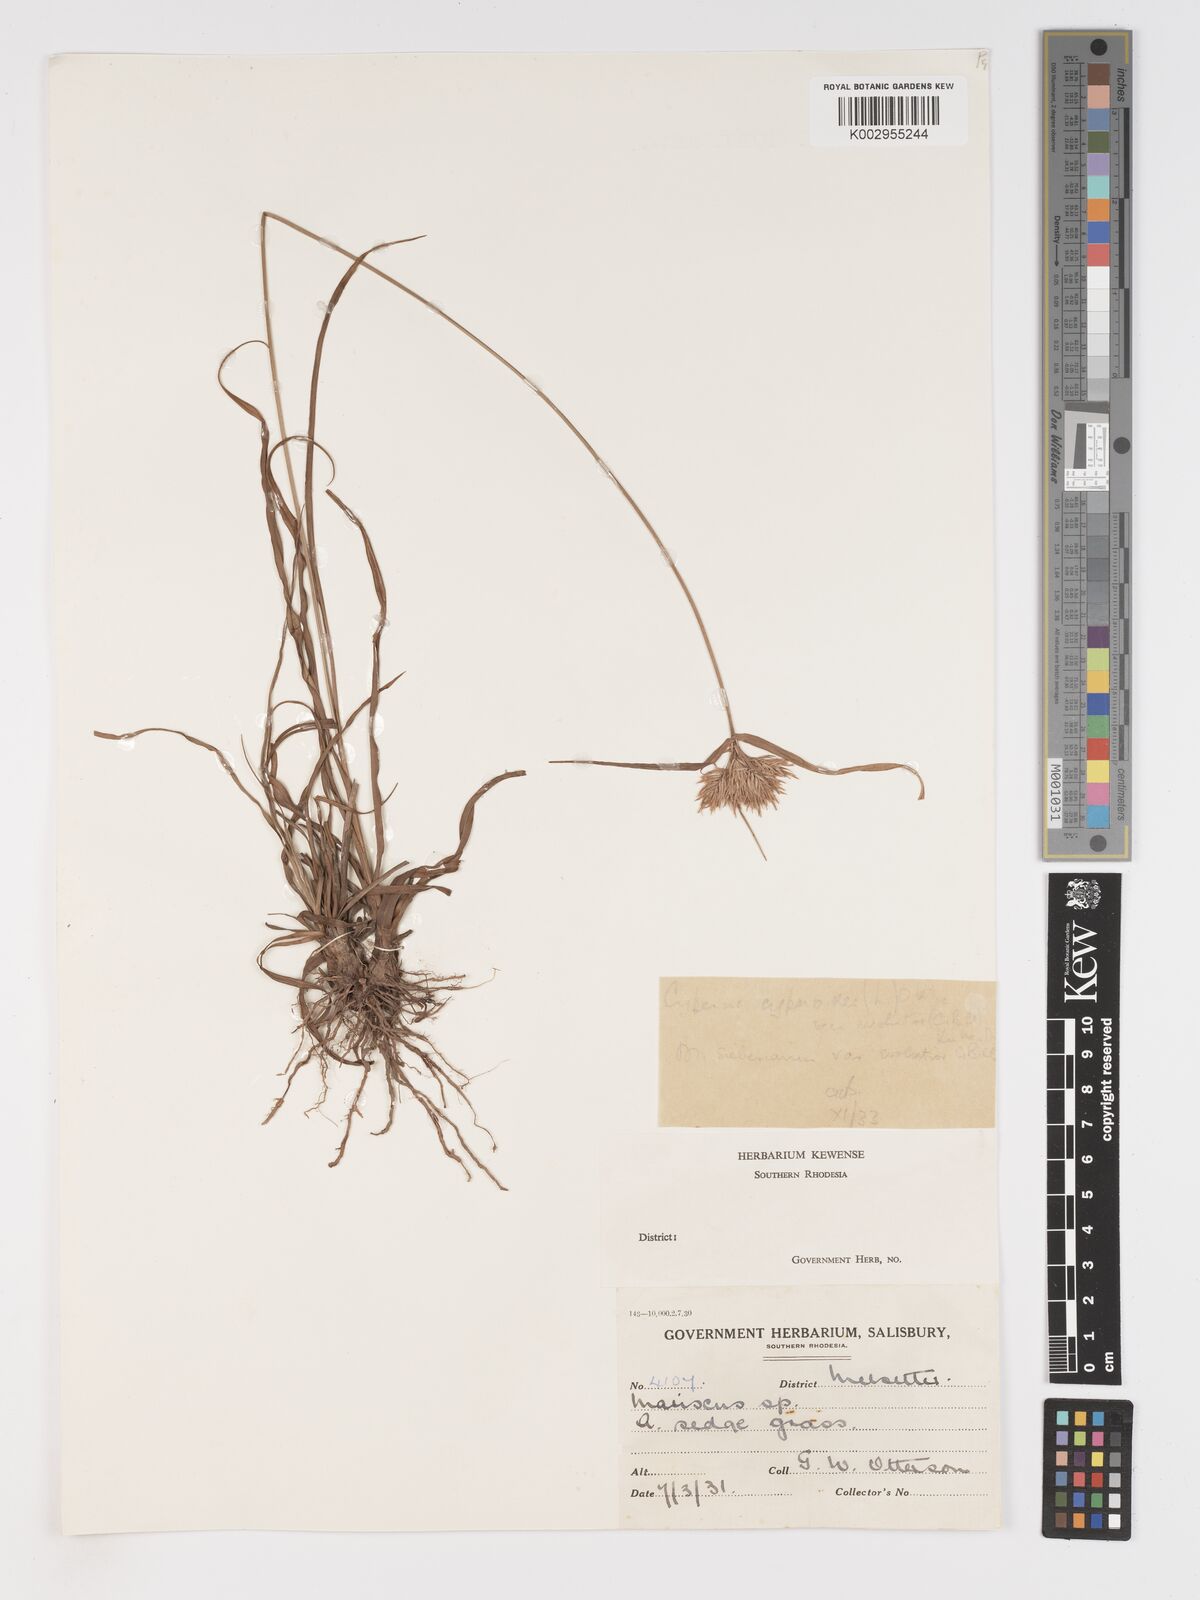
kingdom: Plantae
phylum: Tracheophyta
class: Liliopsida
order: Poales
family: Cyperaceae
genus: Cyperus
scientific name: Cyperus
